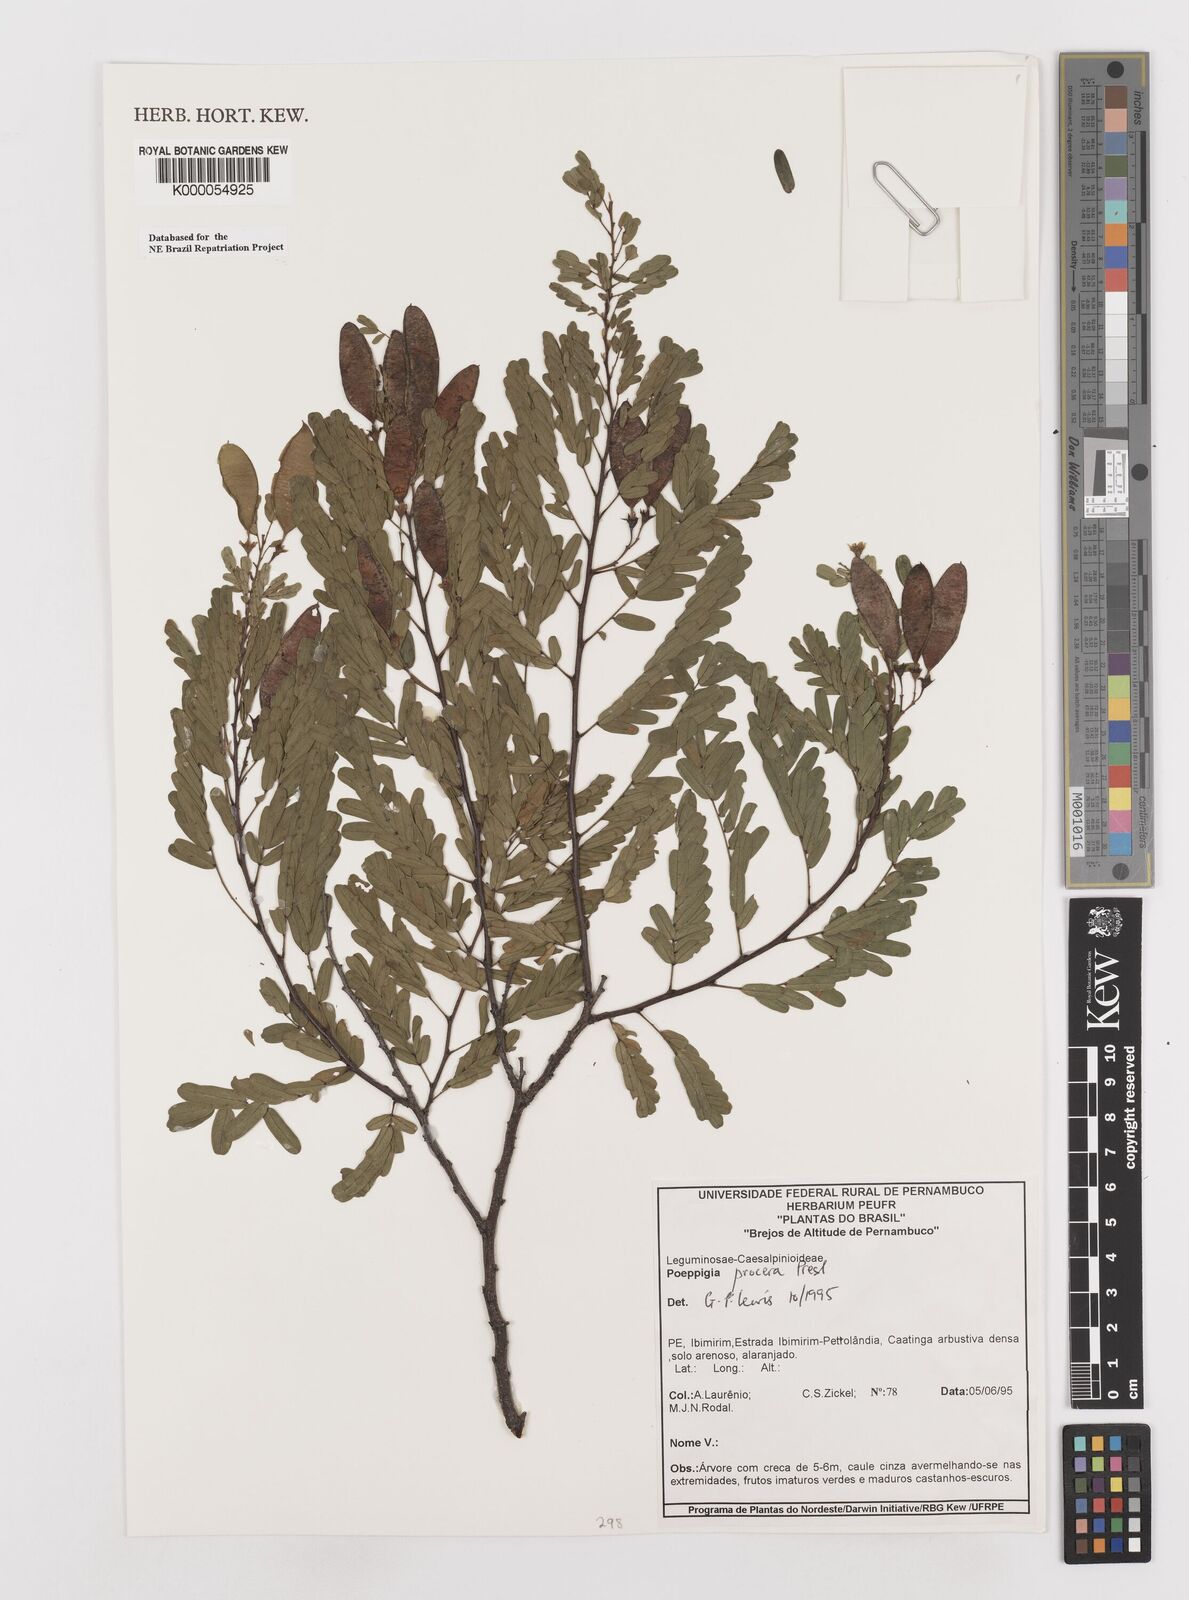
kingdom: Plantae
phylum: Tracheophyta
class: Magnoliopsida
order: Fabales
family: Fabaceae
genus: Poeppigia
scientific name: Poeppigia procera
